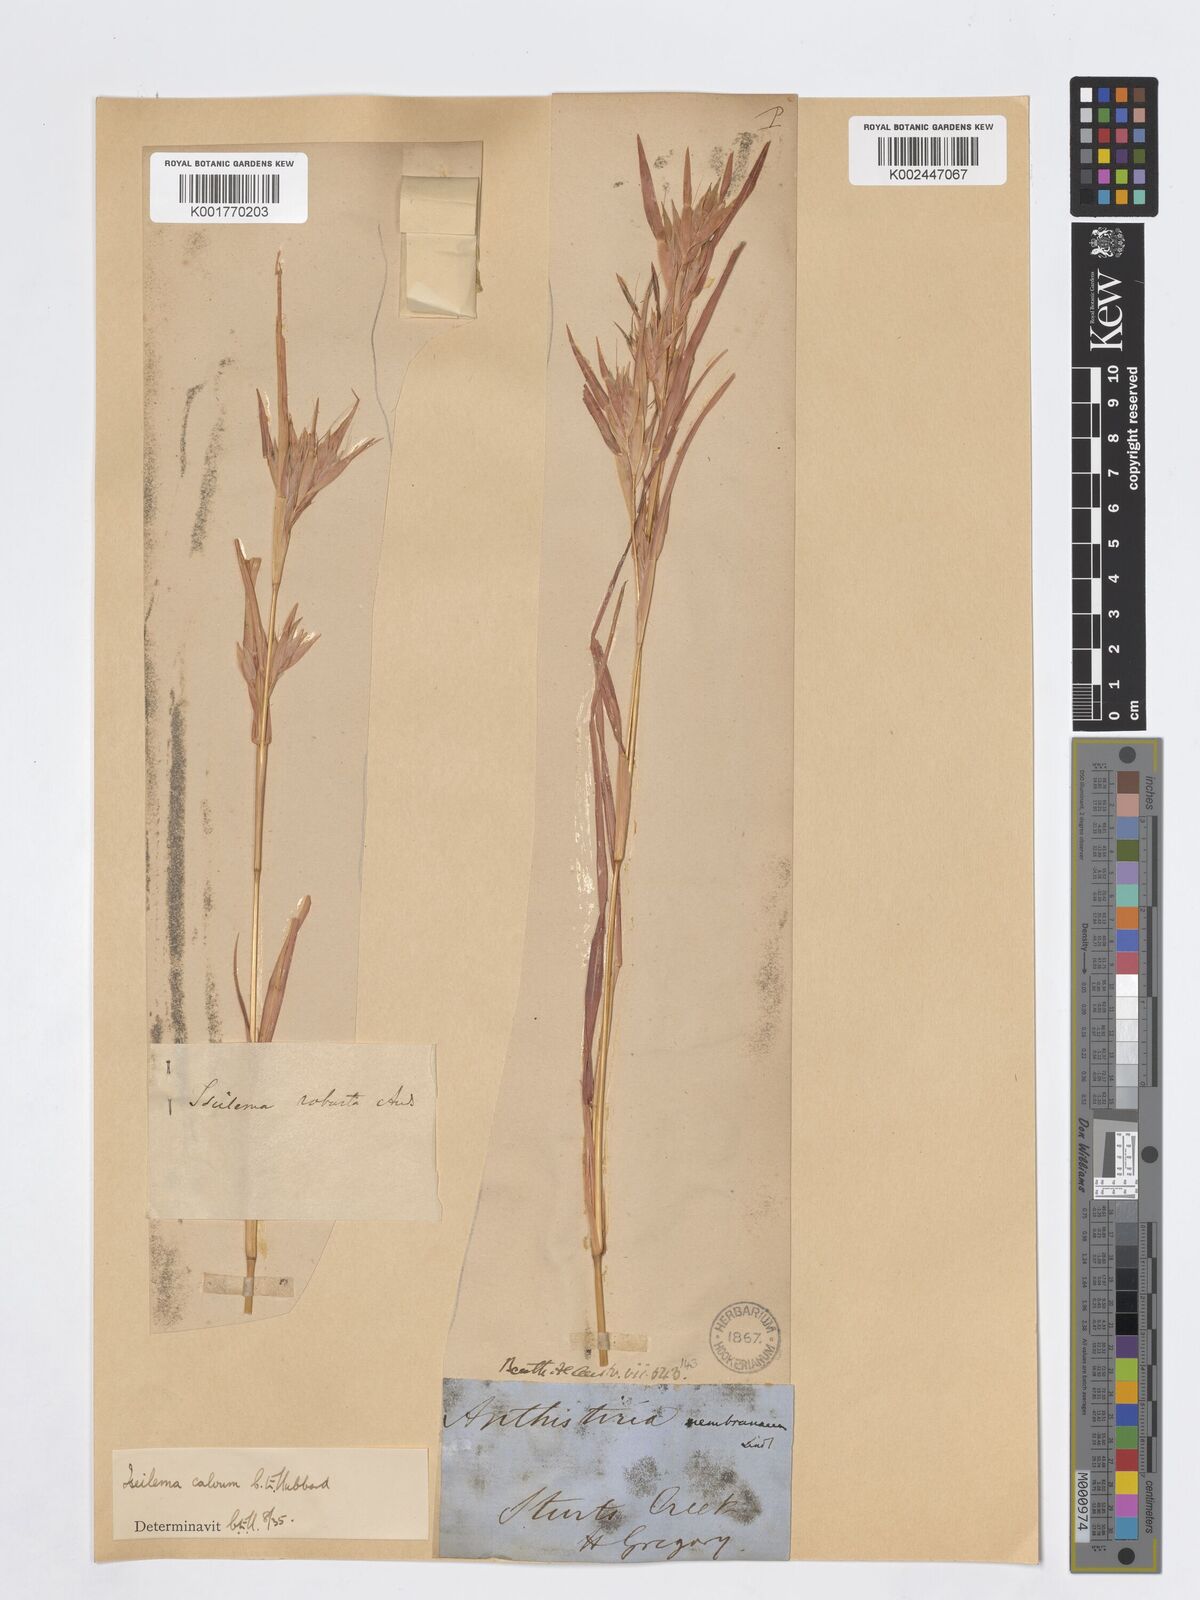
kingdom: Plantae
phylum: Tracheophyta
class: Liliopsida
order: Poales
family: Poaceae
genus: Iseilema
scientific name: Iseilema calvum
